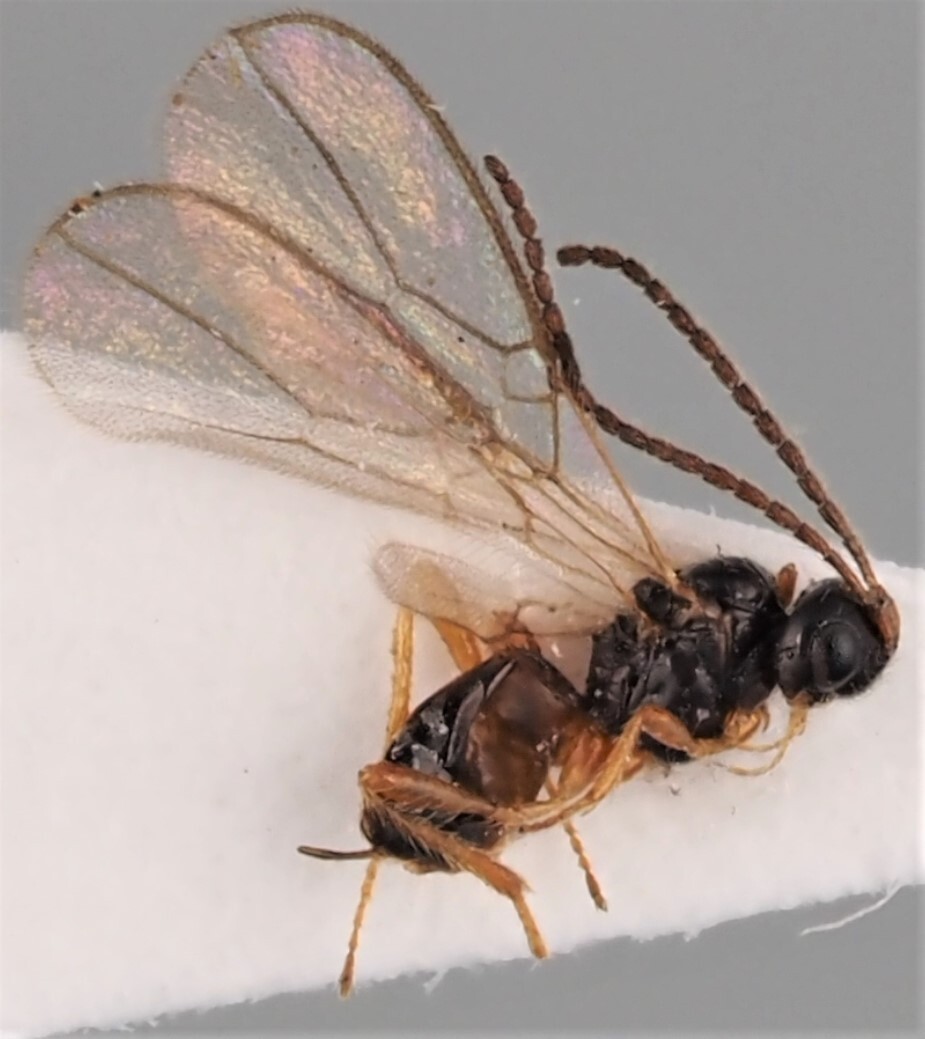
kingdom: Animalia
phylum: Arthropoda
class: Insecta
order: Hymenoptera
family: Braconidae
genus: Aspilota
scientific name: Aspilota latidens
